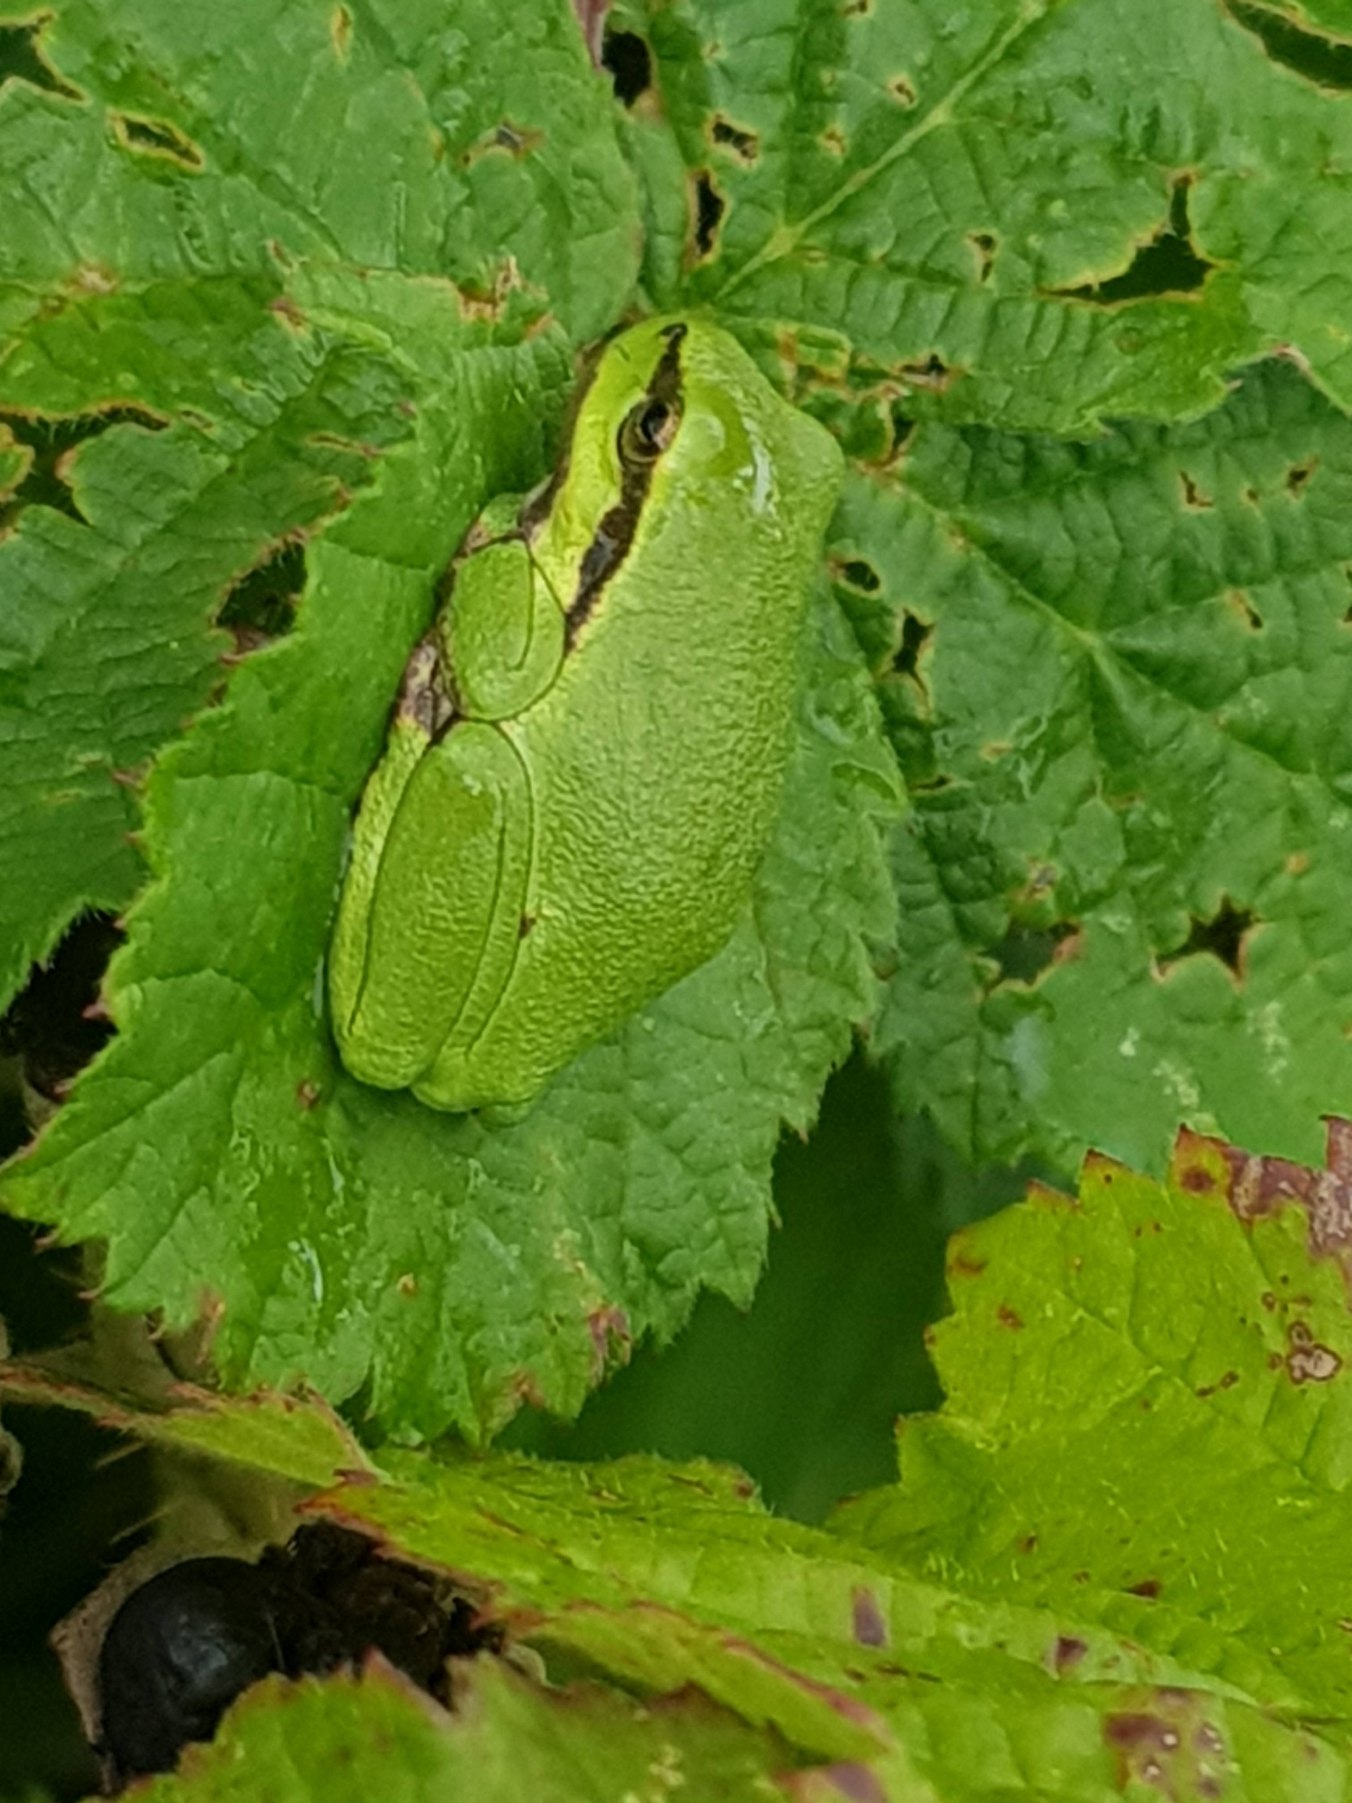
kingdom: Animalia
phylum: Chordata
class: Amphibia
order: Anura
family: Hylidae
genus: Hyla
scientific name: Hyla arborea
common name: Løvfrø
